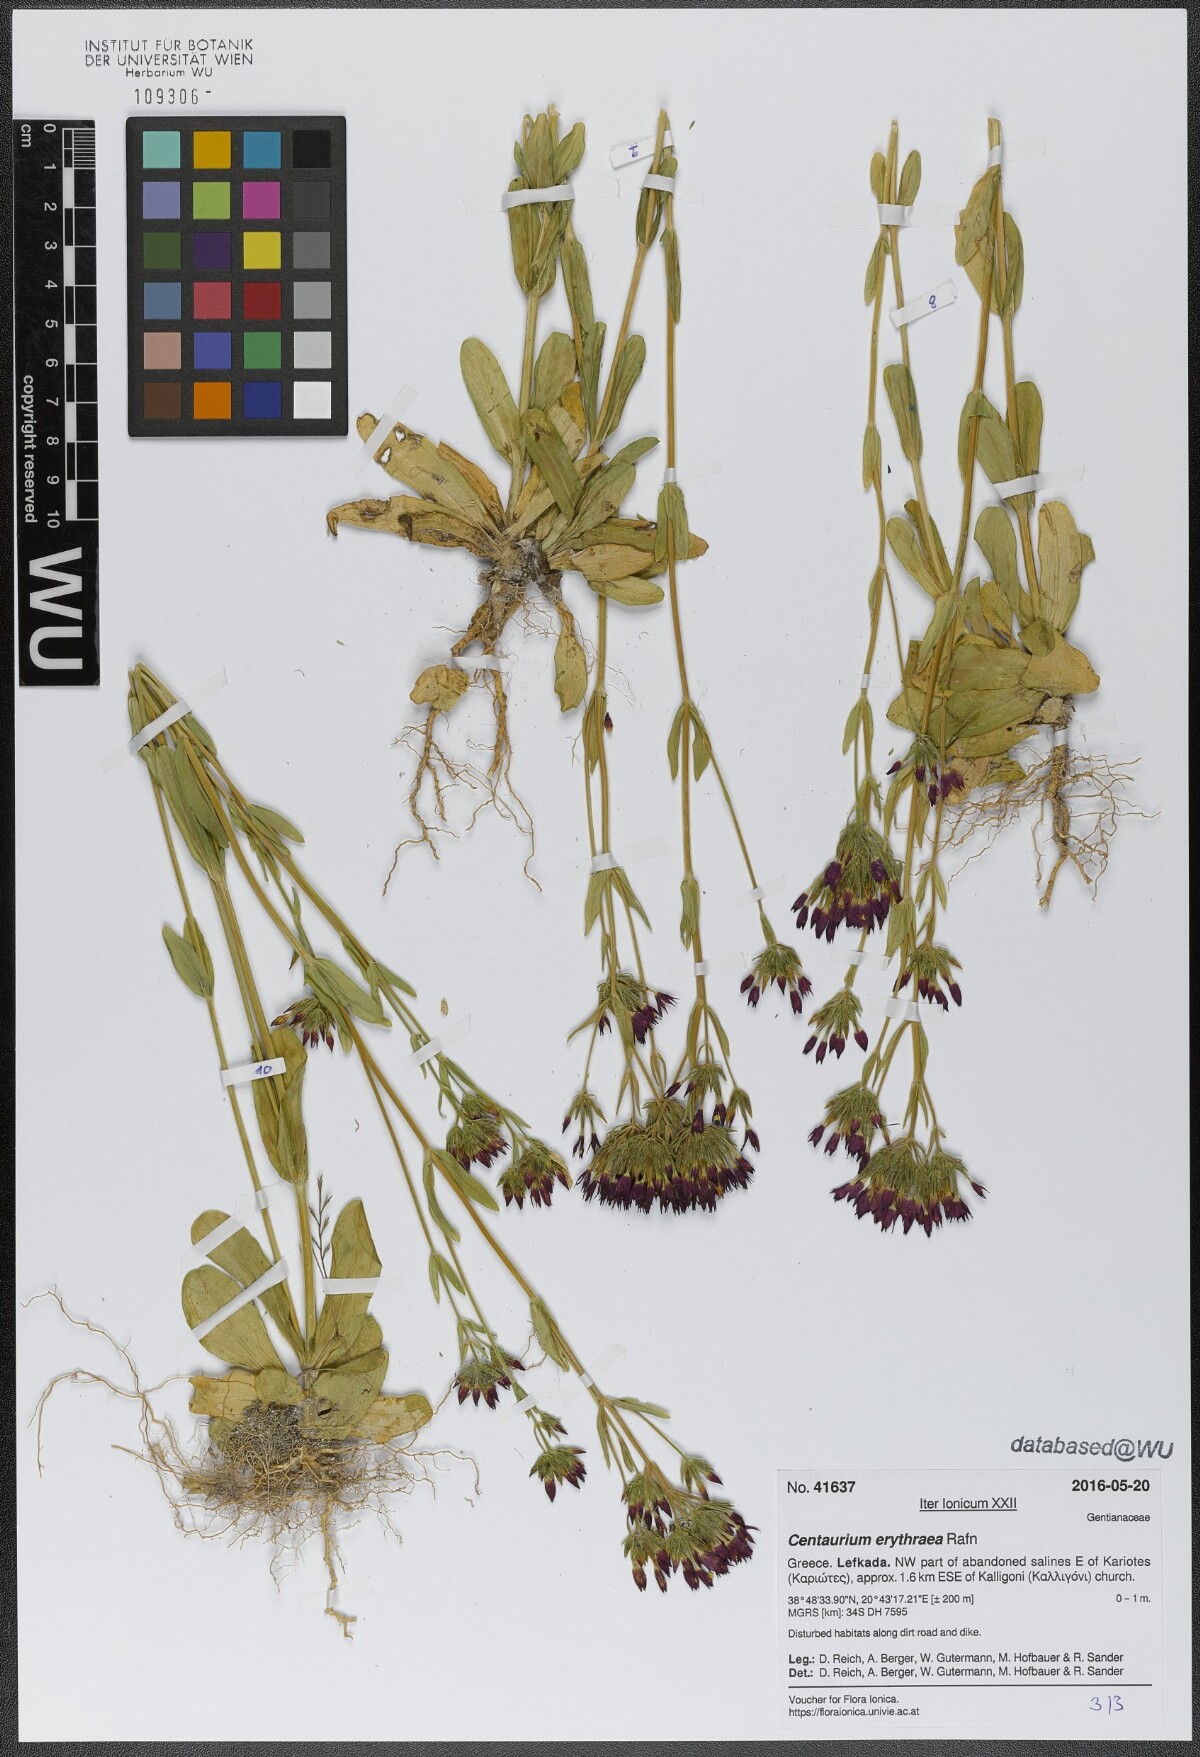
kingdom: Plantae
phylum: Tracheophyta
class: Magnoliopsida
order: Gentianales
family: Gentianaceae
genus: Centaurium
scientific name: Centaurium erythraea
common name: Common centaury
